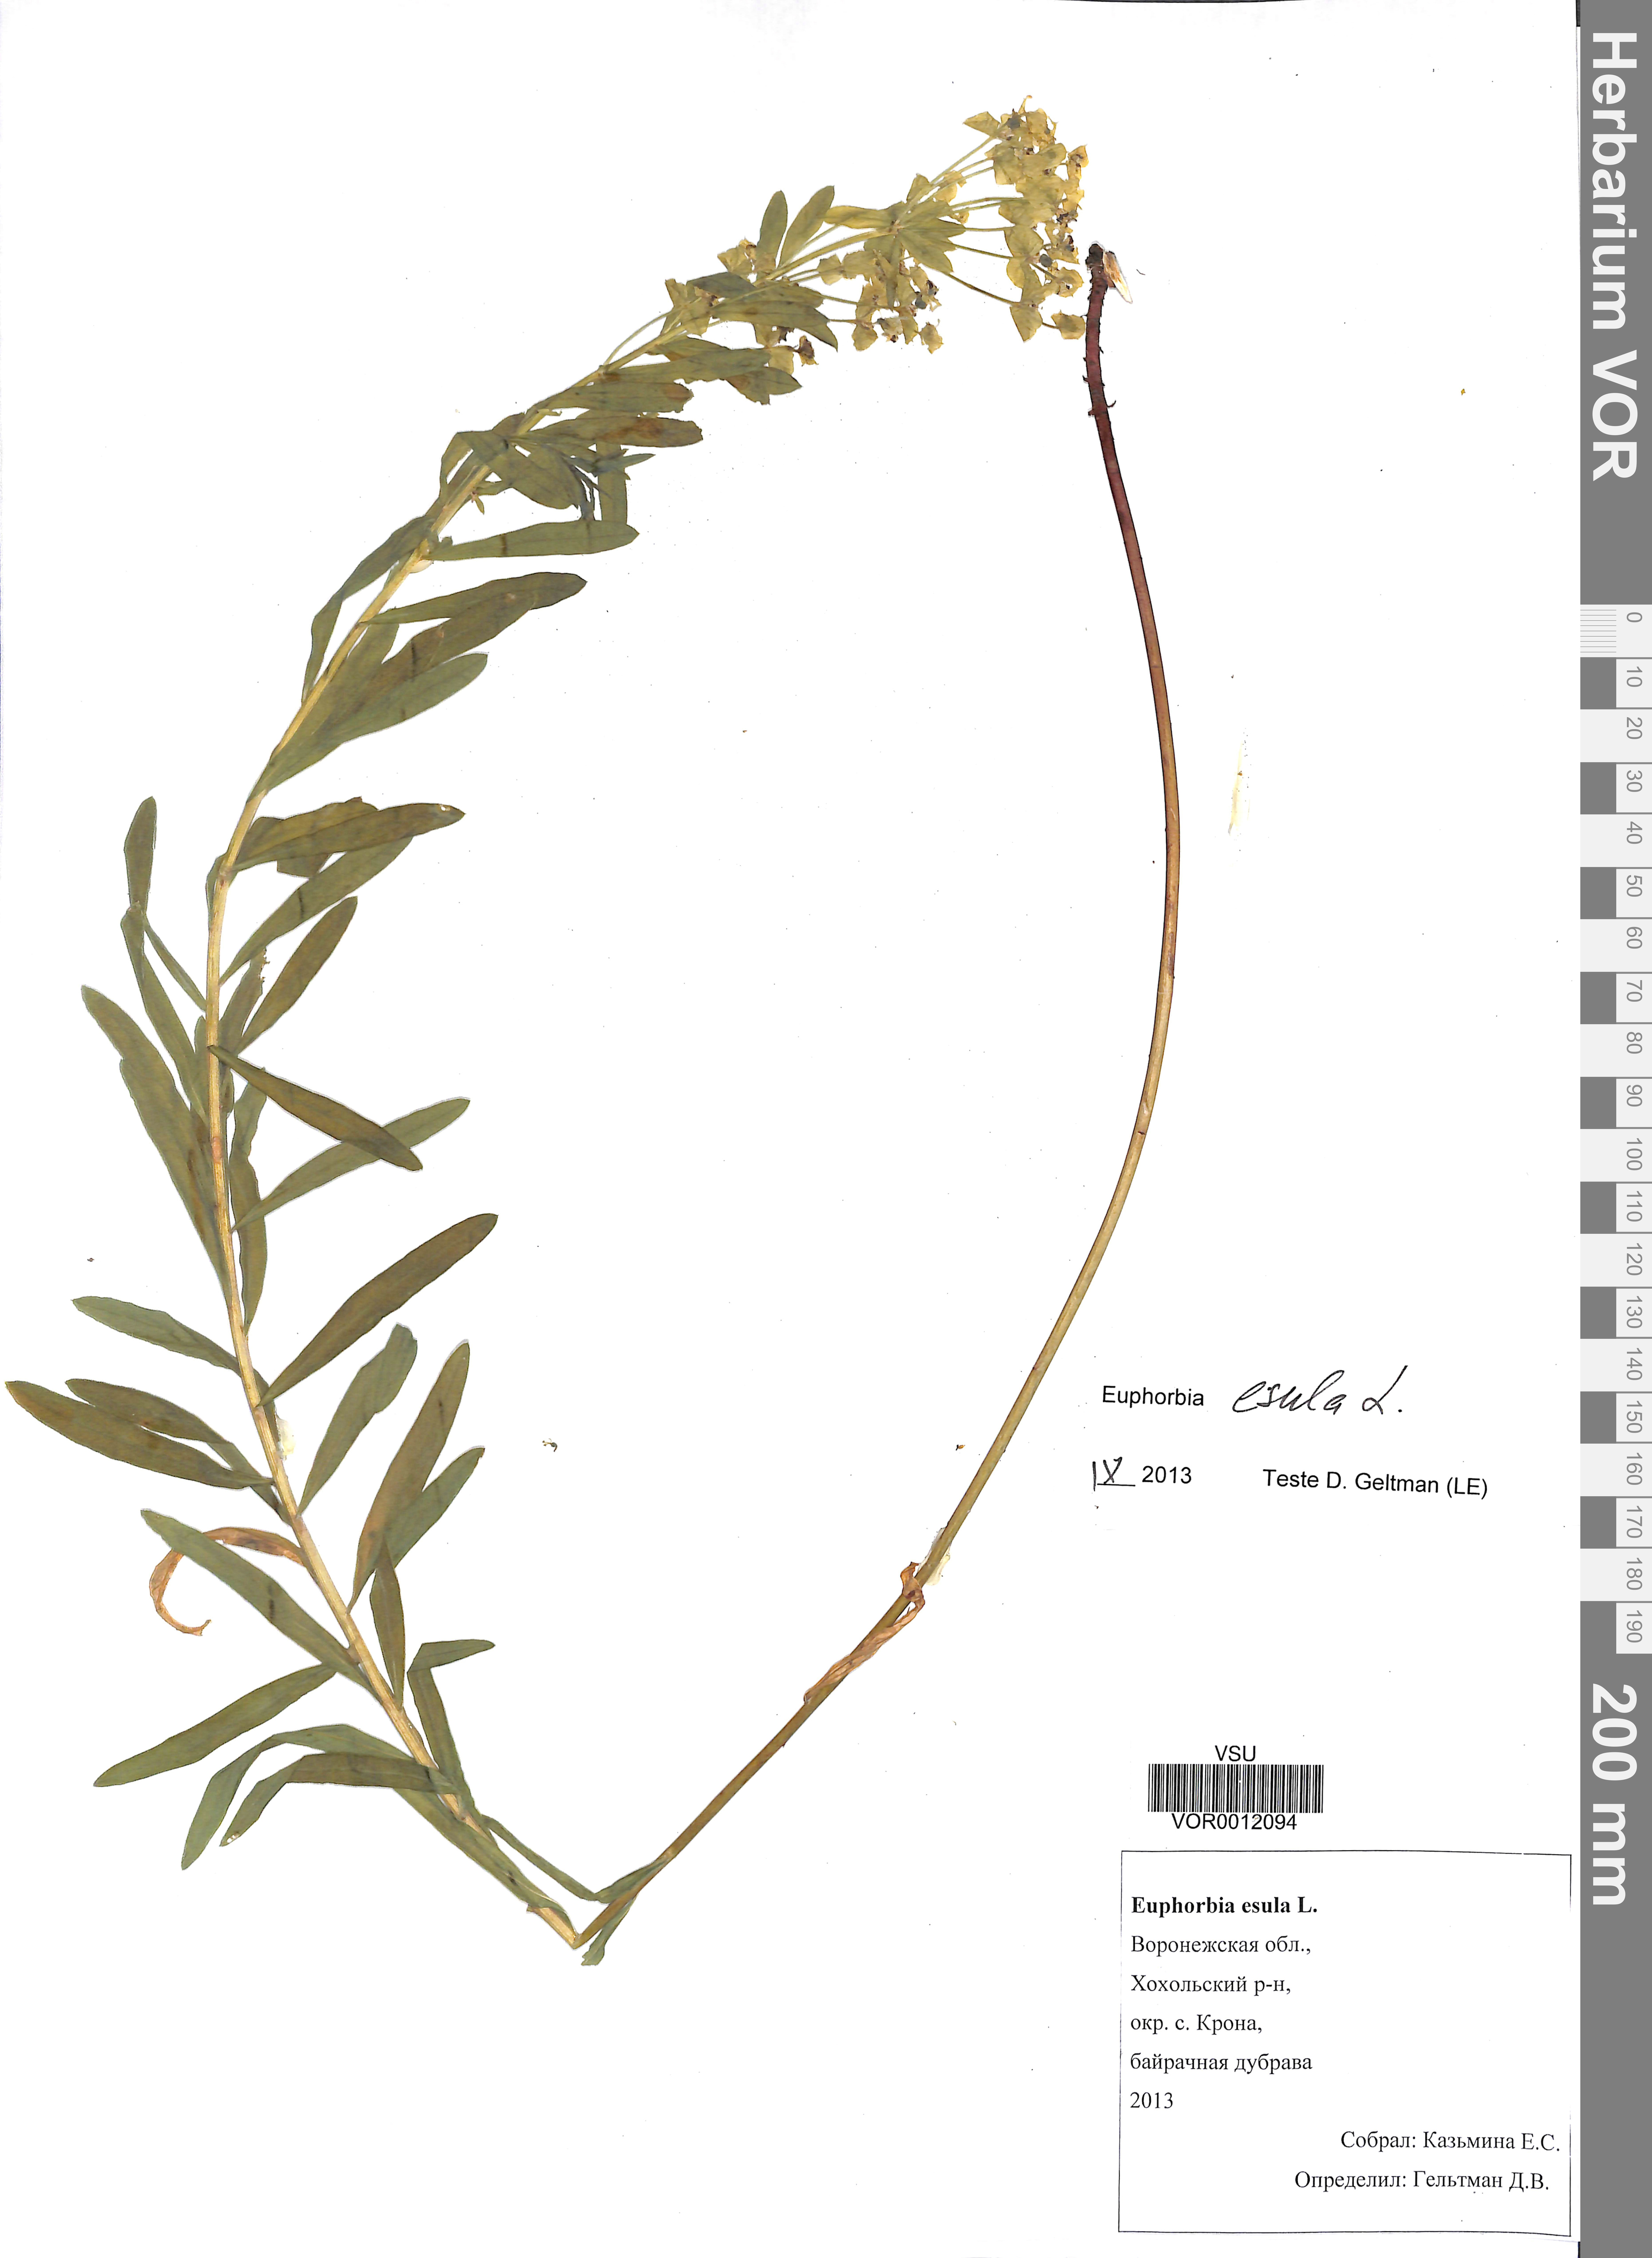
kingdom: Plantae
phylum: Tracheophyta
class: Magnoliopsida
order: Malpighiales
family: Euphorbiaceae
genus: Euphorbia
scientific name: Euphorbia esula
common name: Leafy spurge
